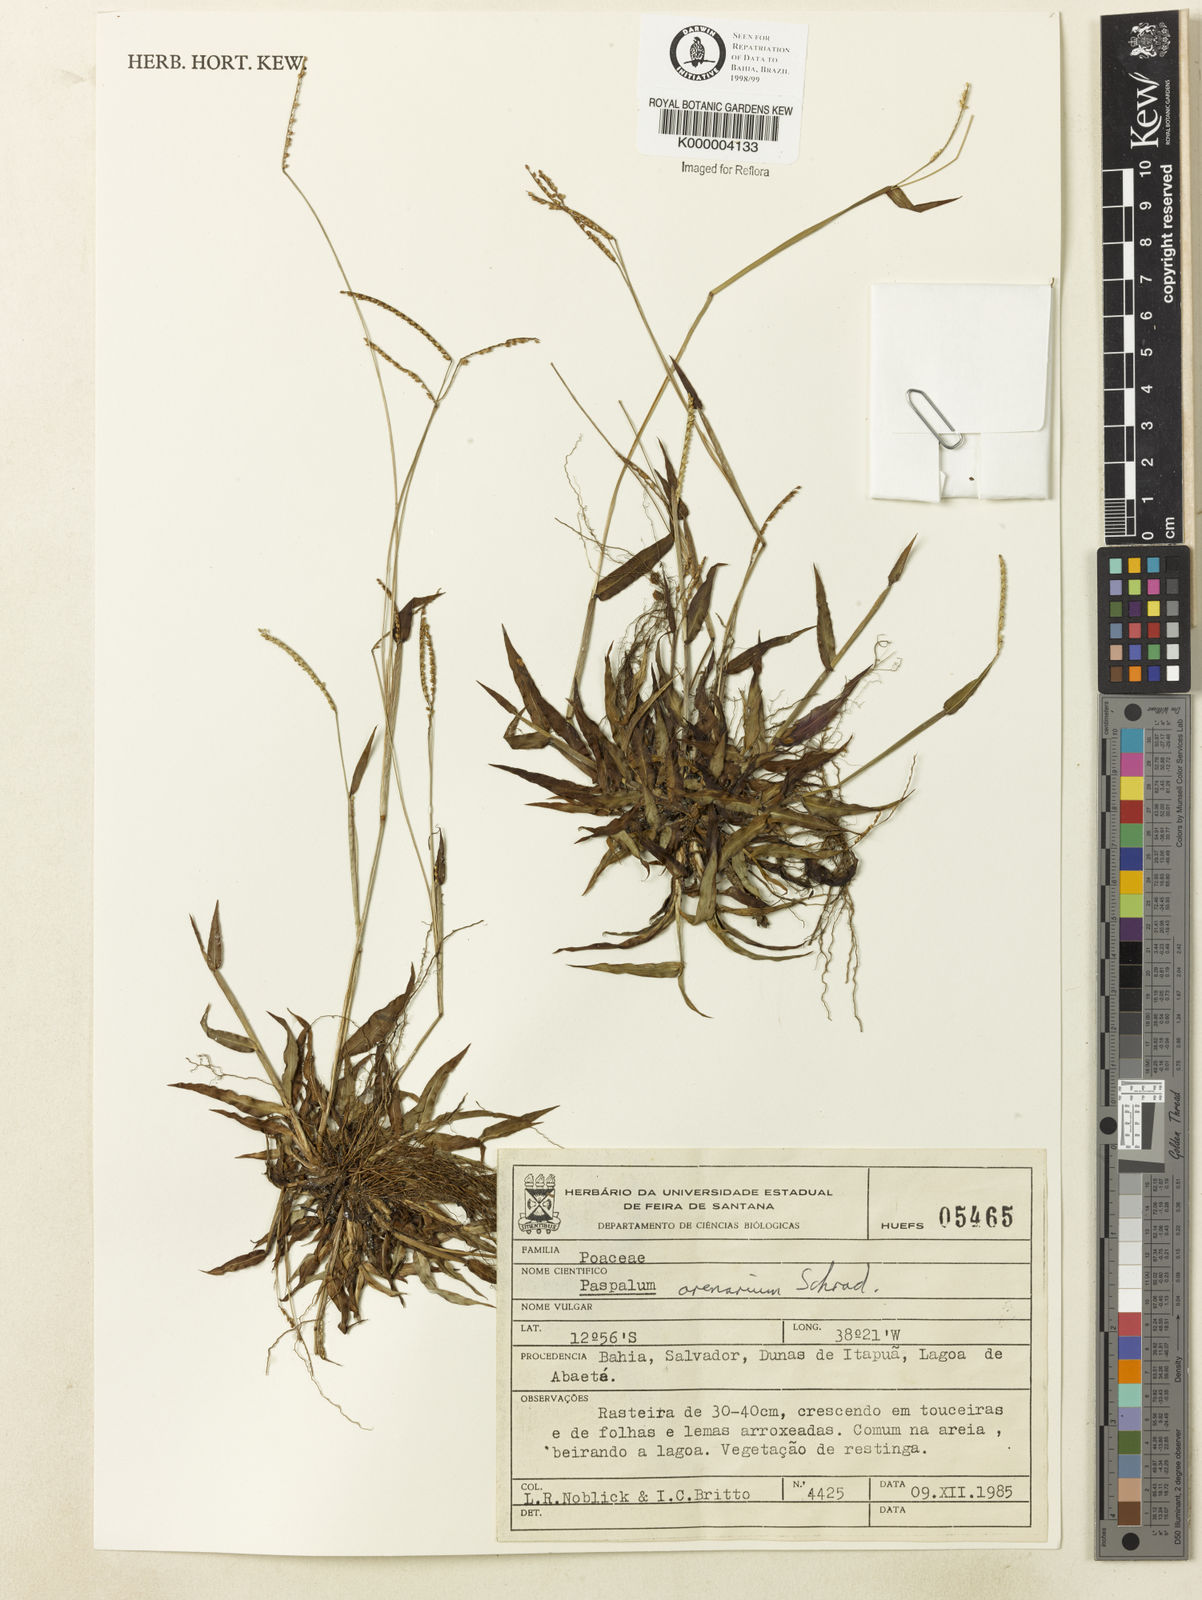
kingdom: Plantae
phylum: Tracheophyta
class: Liliopsida
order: Poales
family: Poaceae
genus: Paspalum
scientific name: Paspalum arenarium
